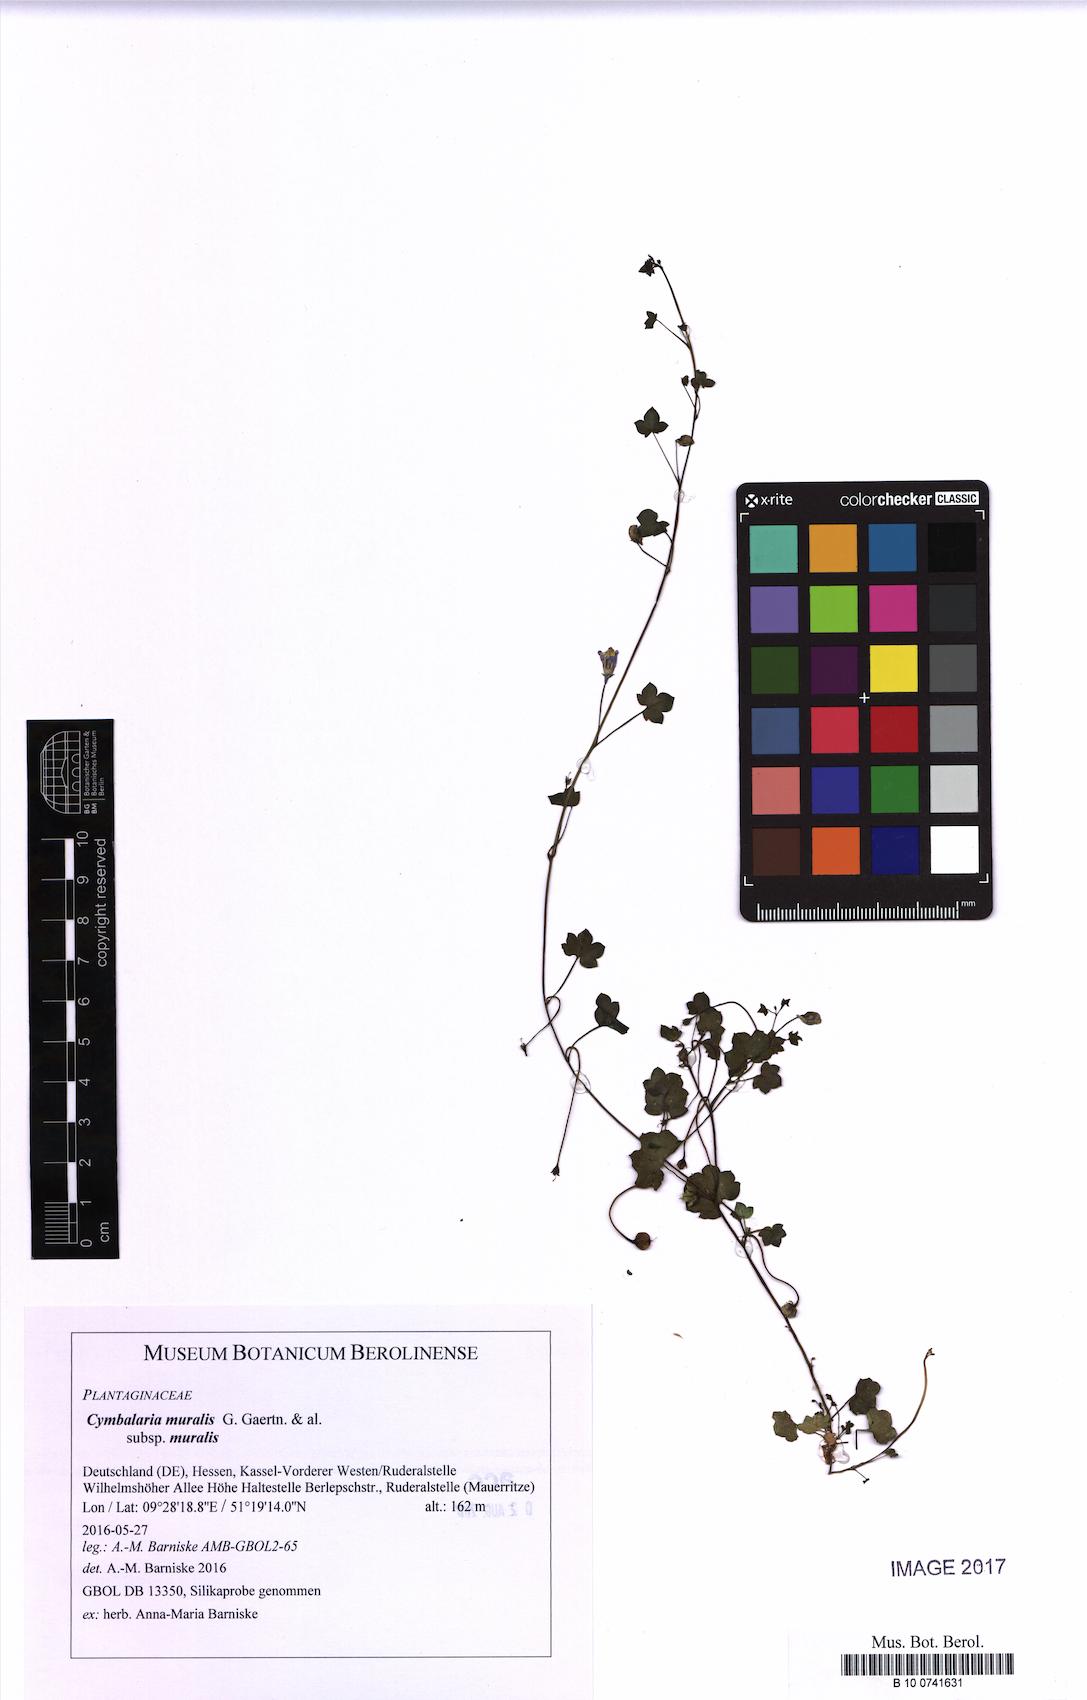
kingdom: Plantae
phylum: Tracheophyta
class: Magnoliopsida
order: Lamiales
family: Plantaginaceae
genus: Cymbalaria
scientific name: Cymbalaria muralis
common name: Ivy-leaved toadflax
